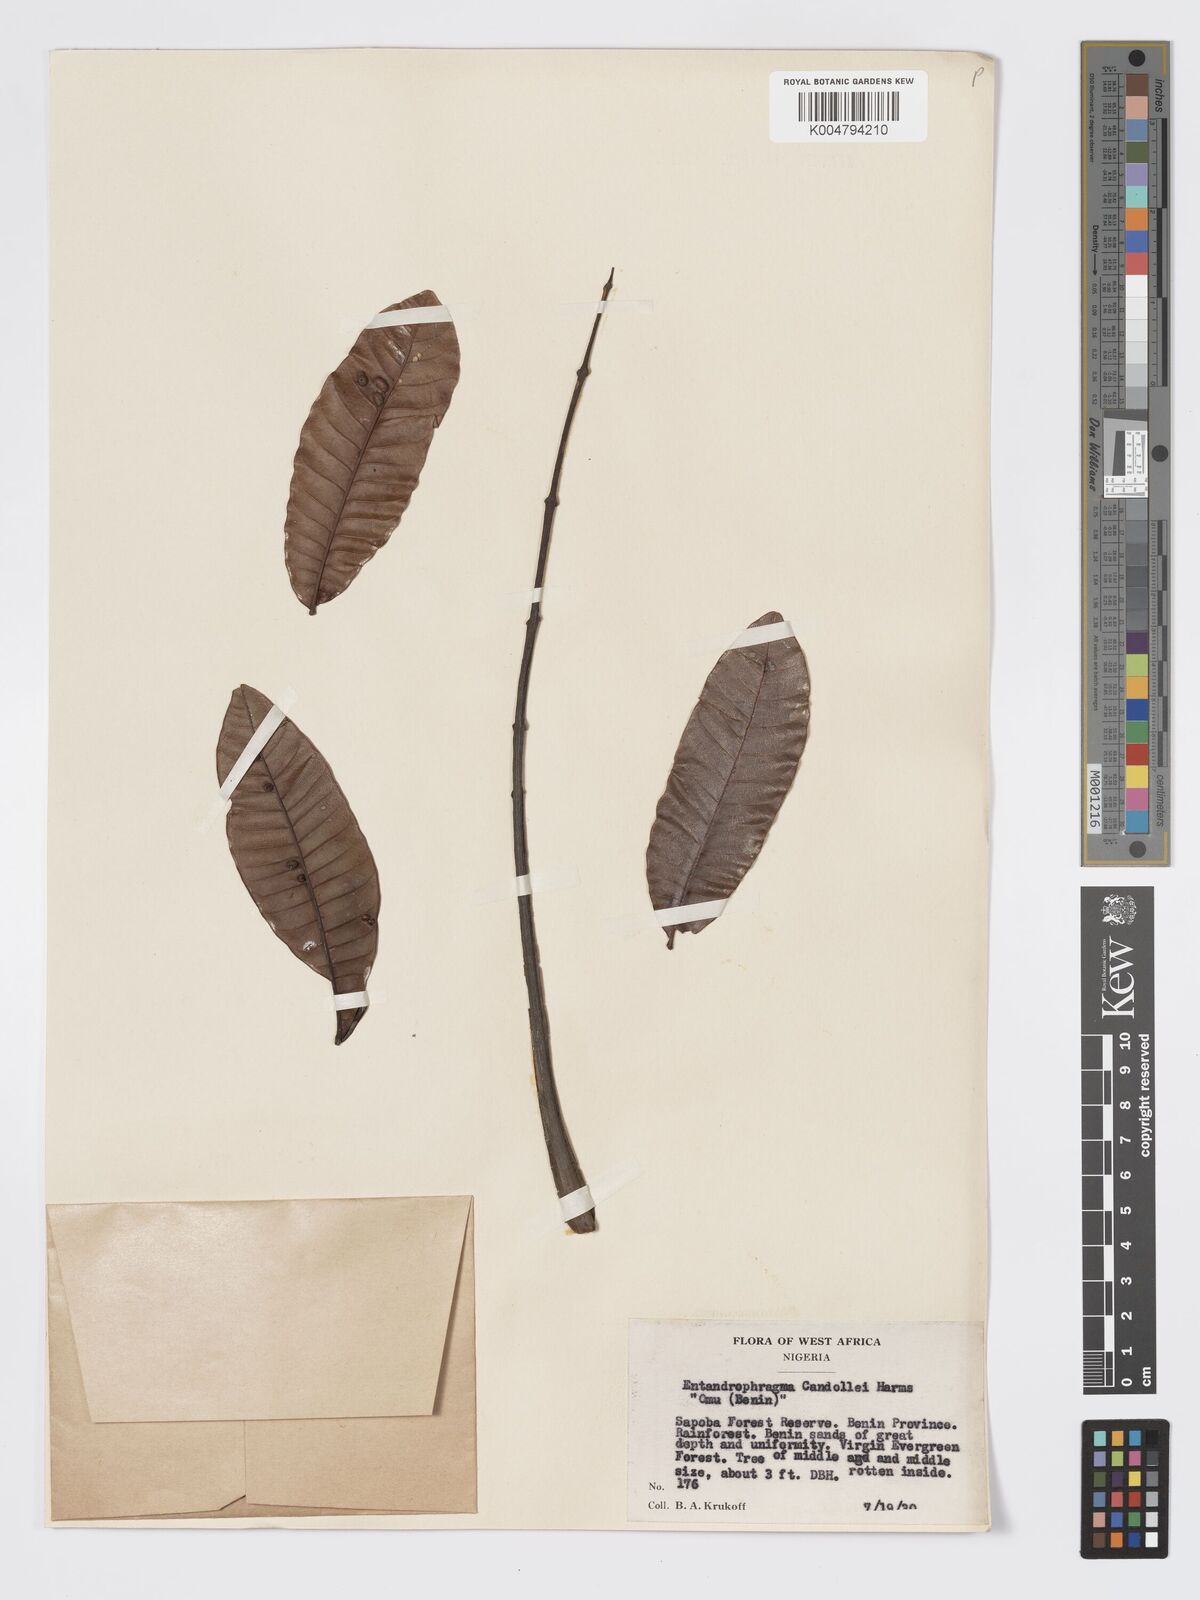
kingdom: Plantae
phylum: Tracheophyta
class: Magnoliopsida
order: Sapindales
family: Meliaceae
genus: Entandrophragma
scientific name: Entandrophragma candollei
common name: Cedar kokoti
